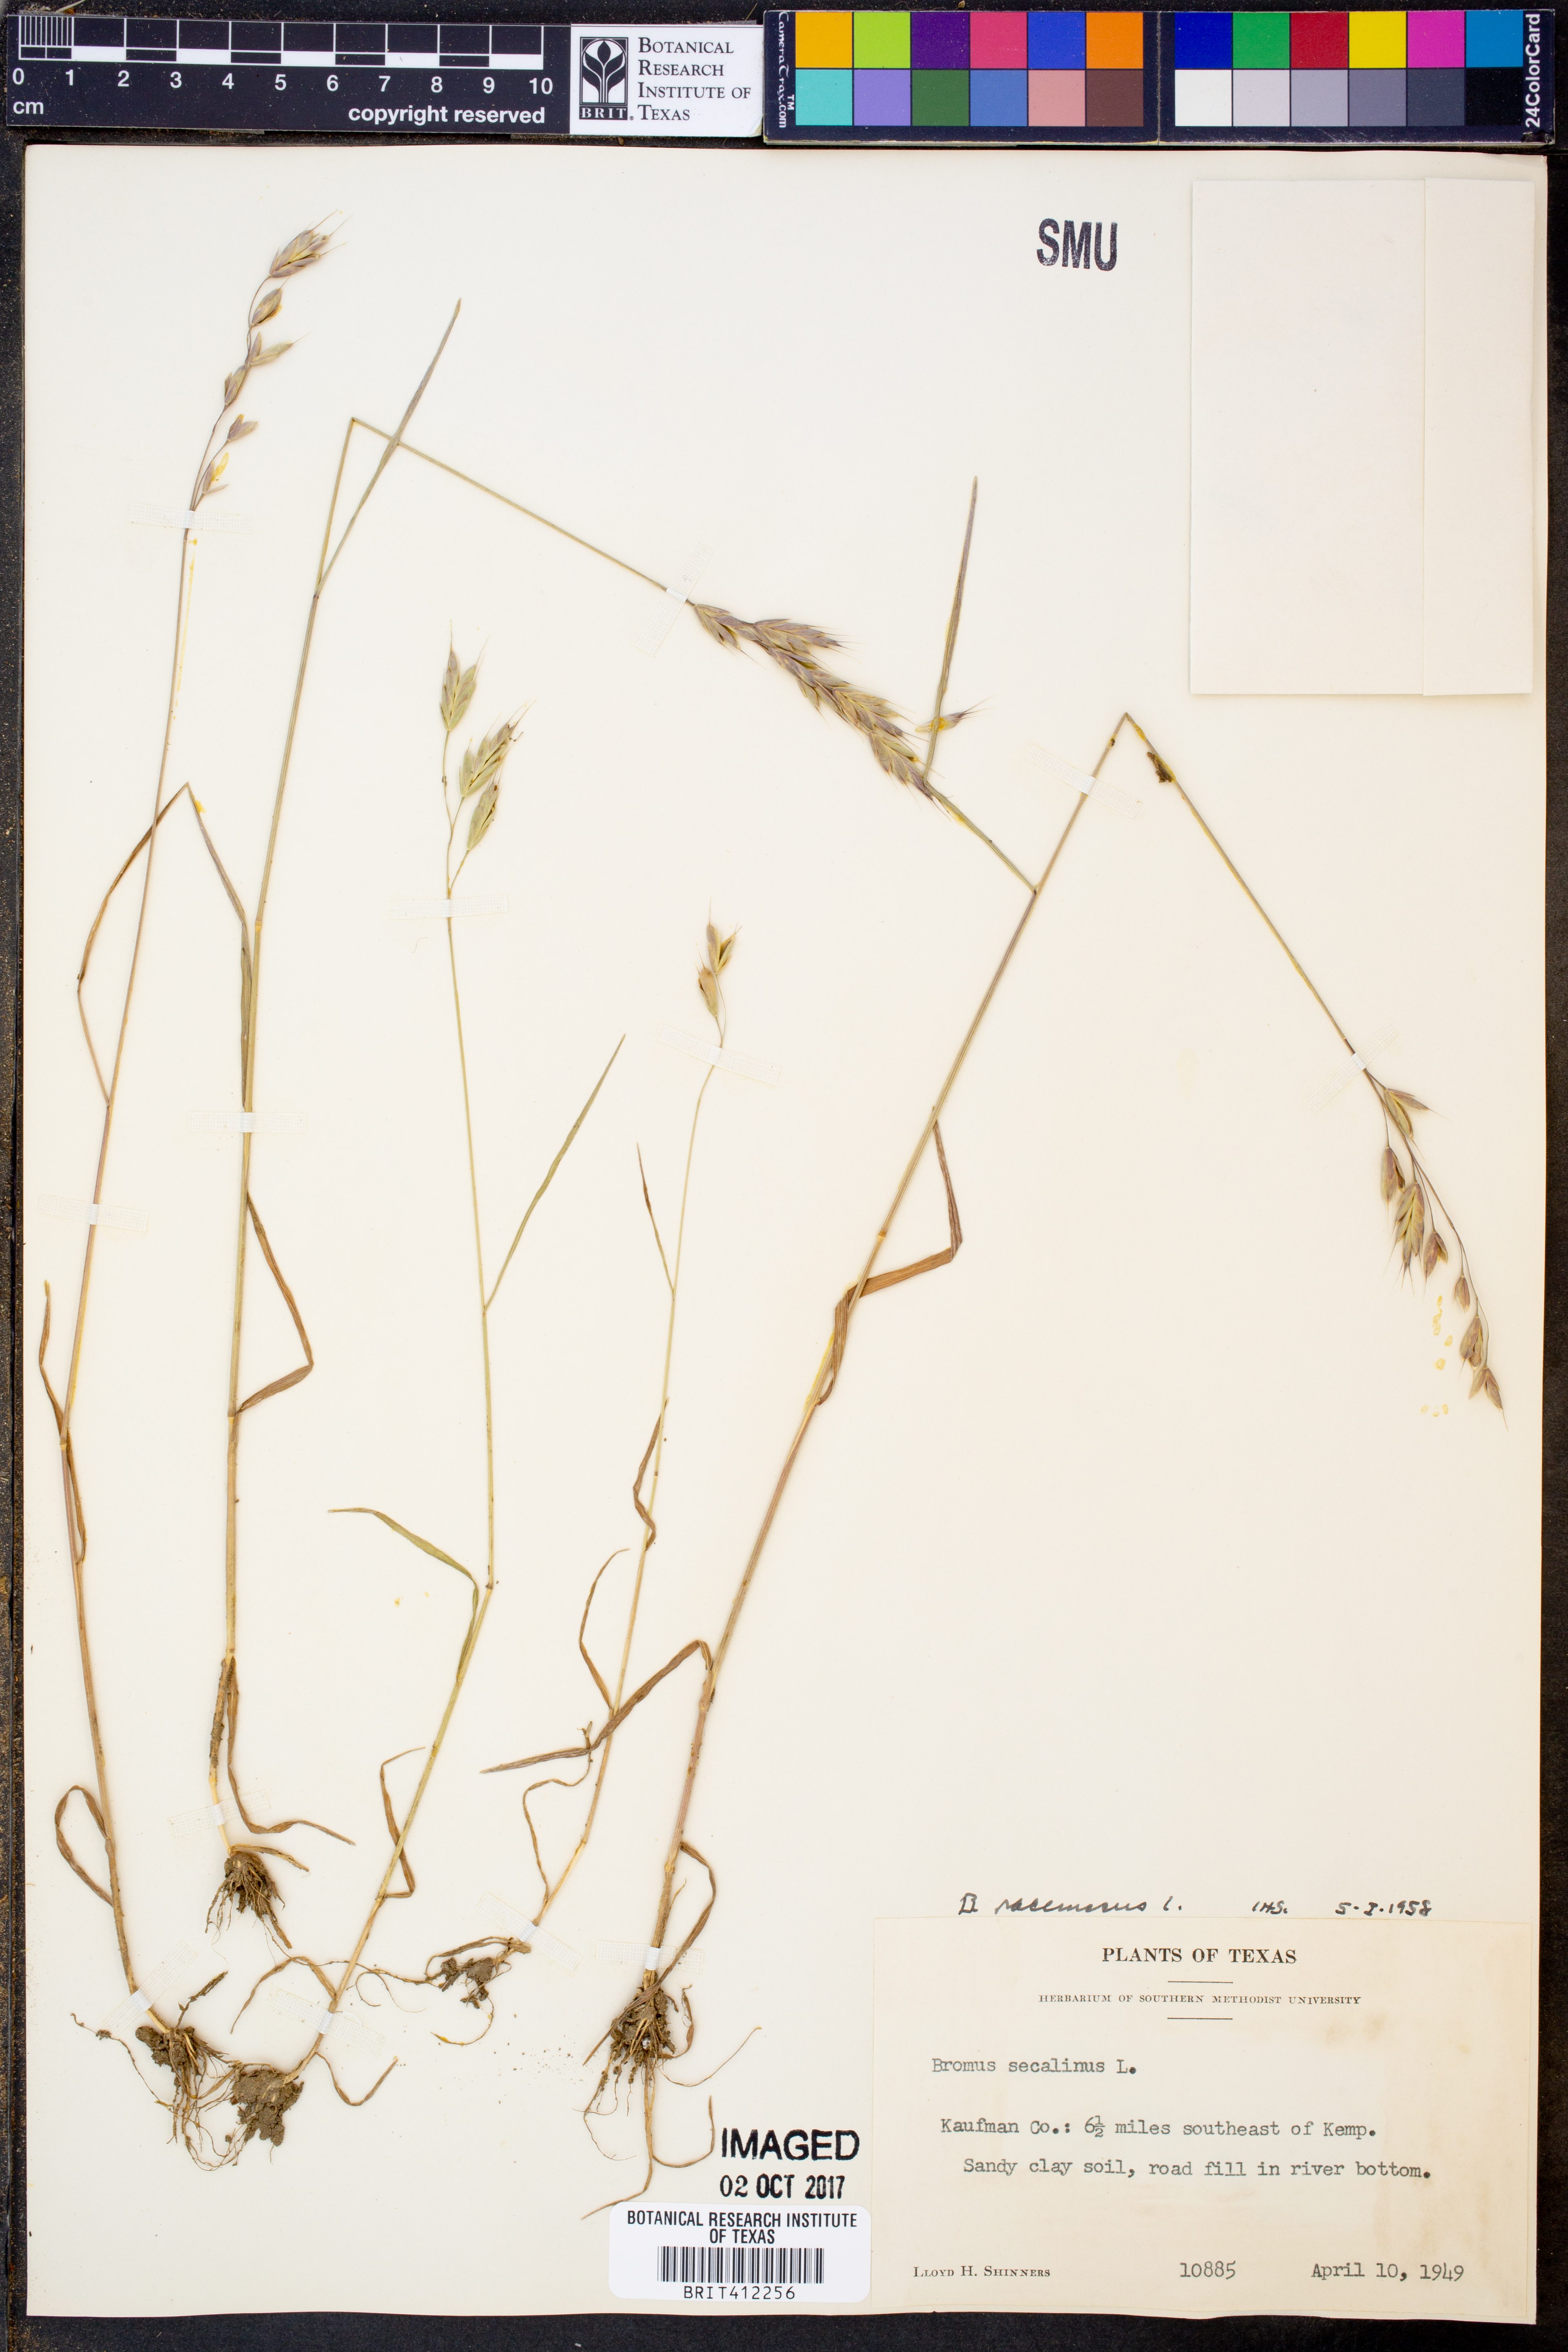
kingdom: Plantae
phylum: Tracheophyta
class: Liliopsida
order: Poales
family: Poaceae
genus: Bromus
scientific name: Bromus racemosus
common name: Bald brome
